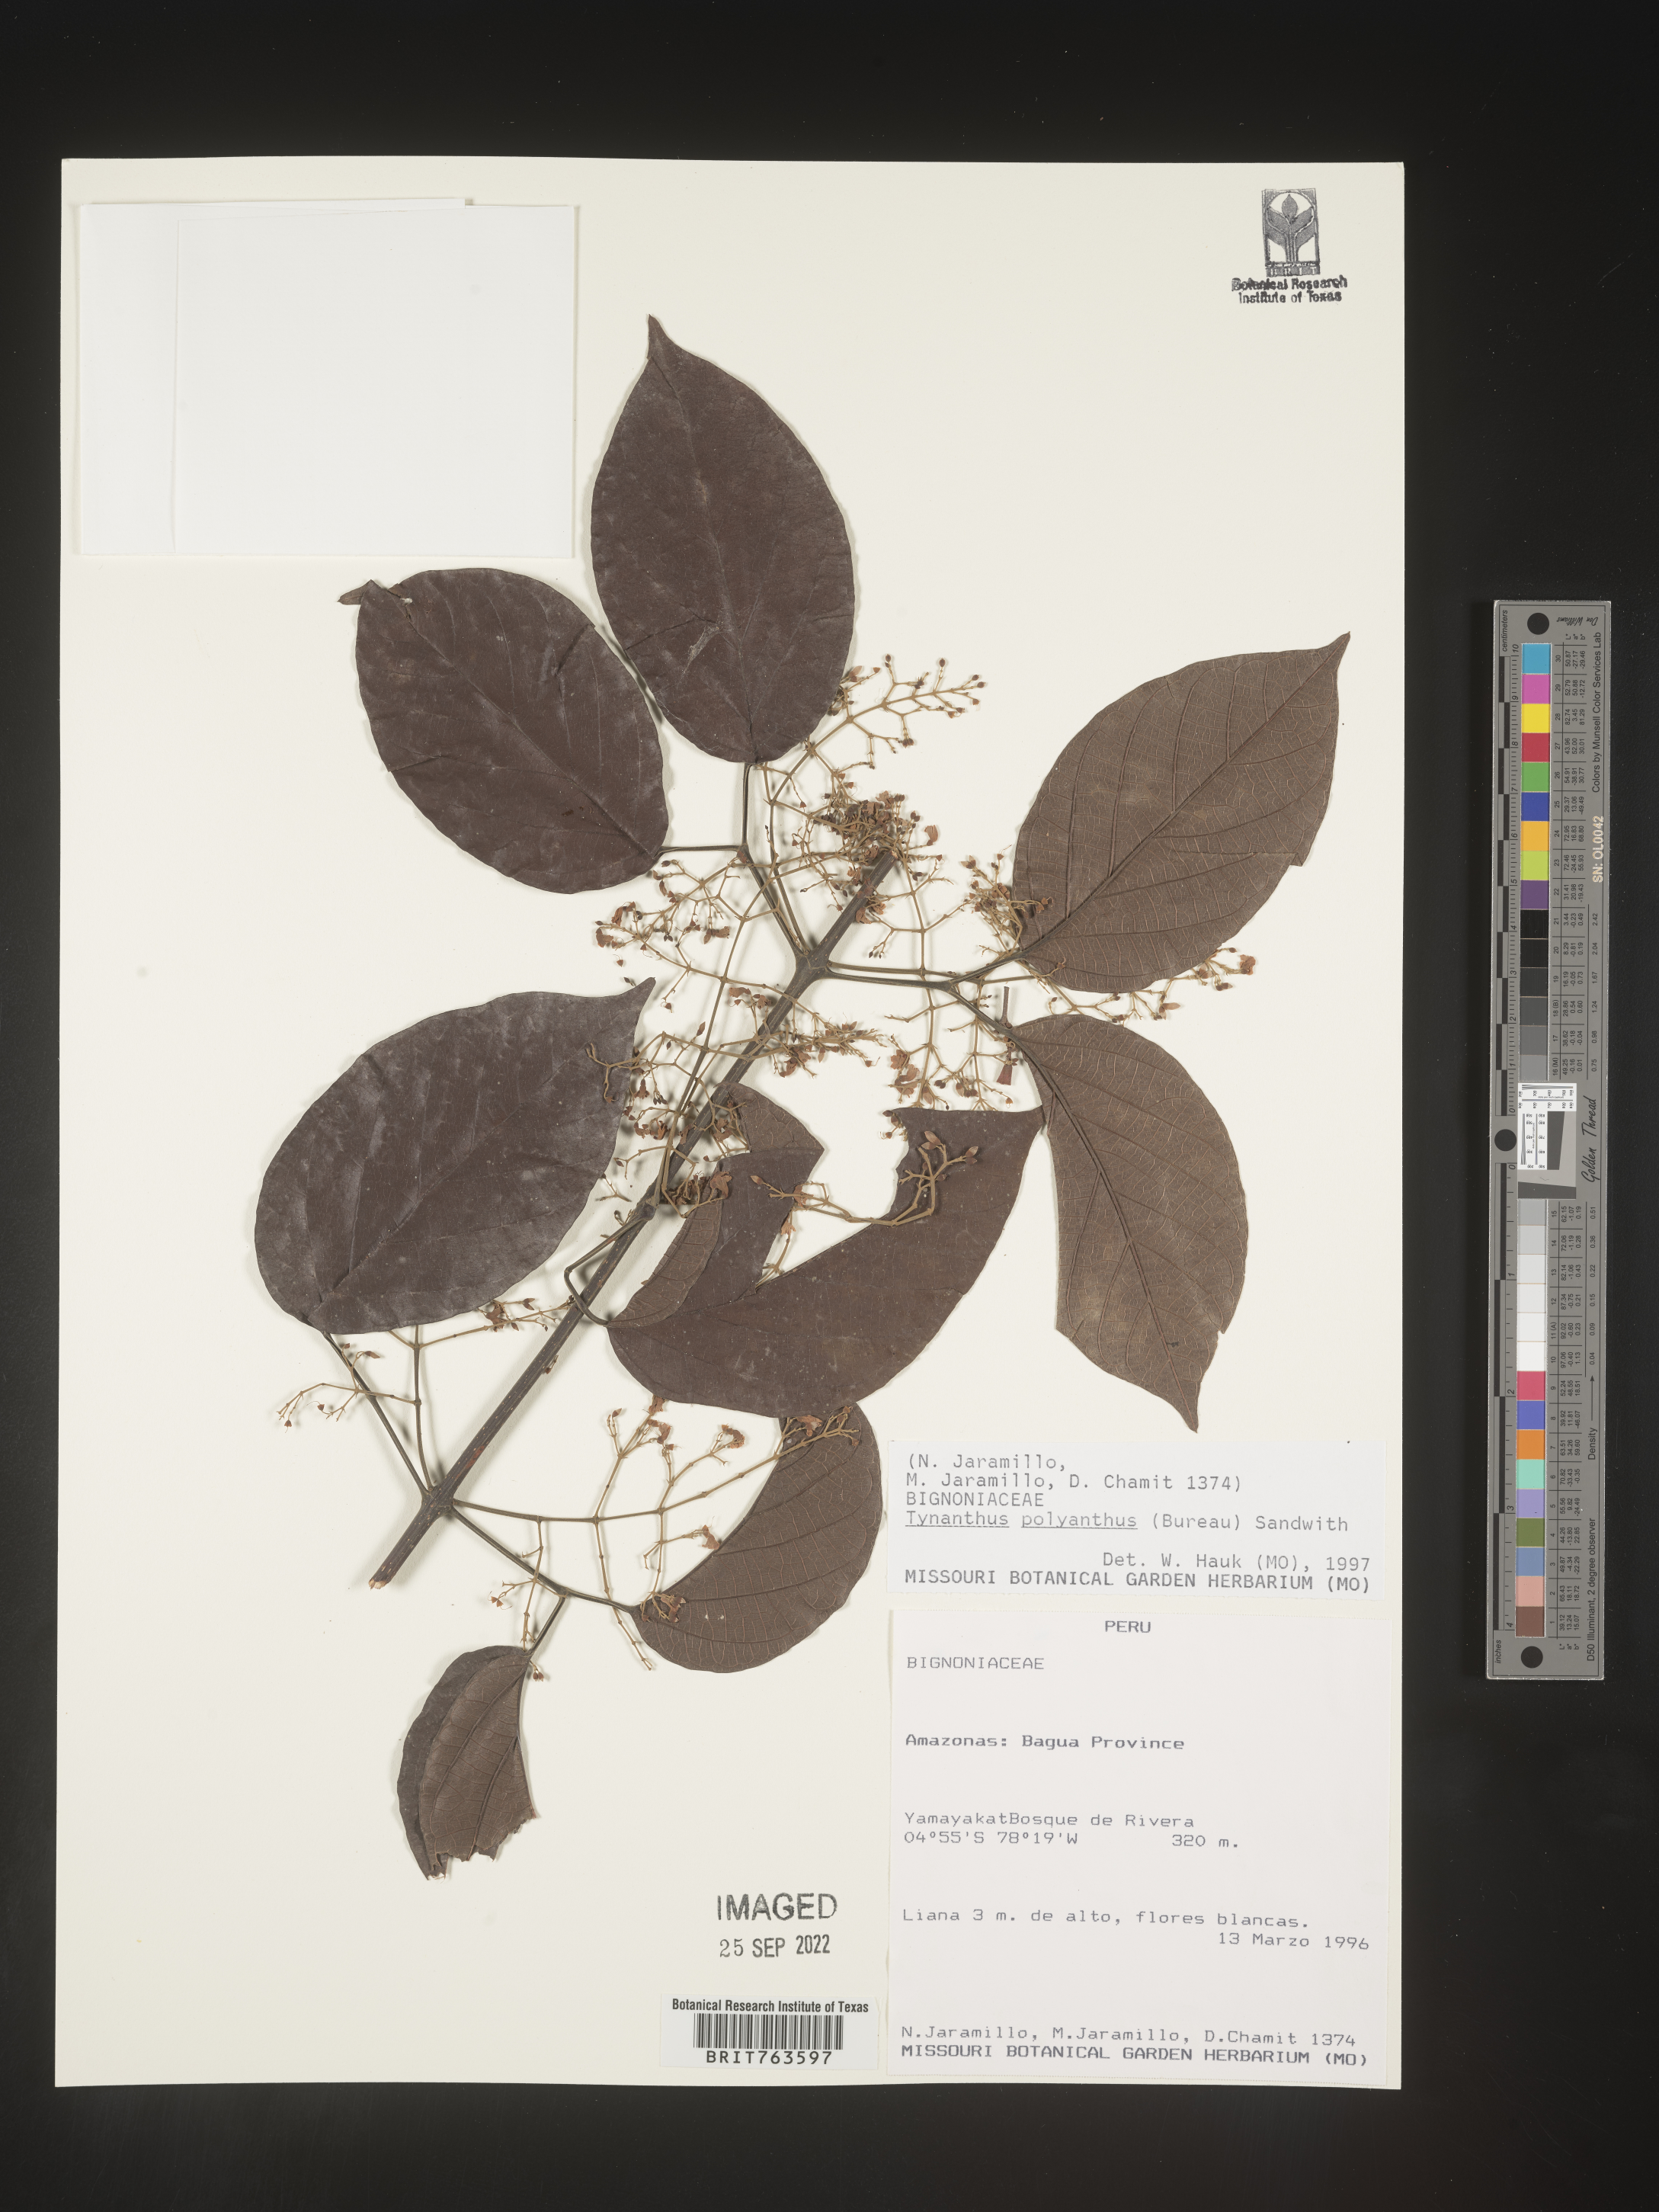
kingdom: Plantae
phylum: Tracheophyta
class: Magnoliopsida
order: Lamiales
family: Bignoniaceae
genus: Tynanthus
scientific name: Tynanthus
